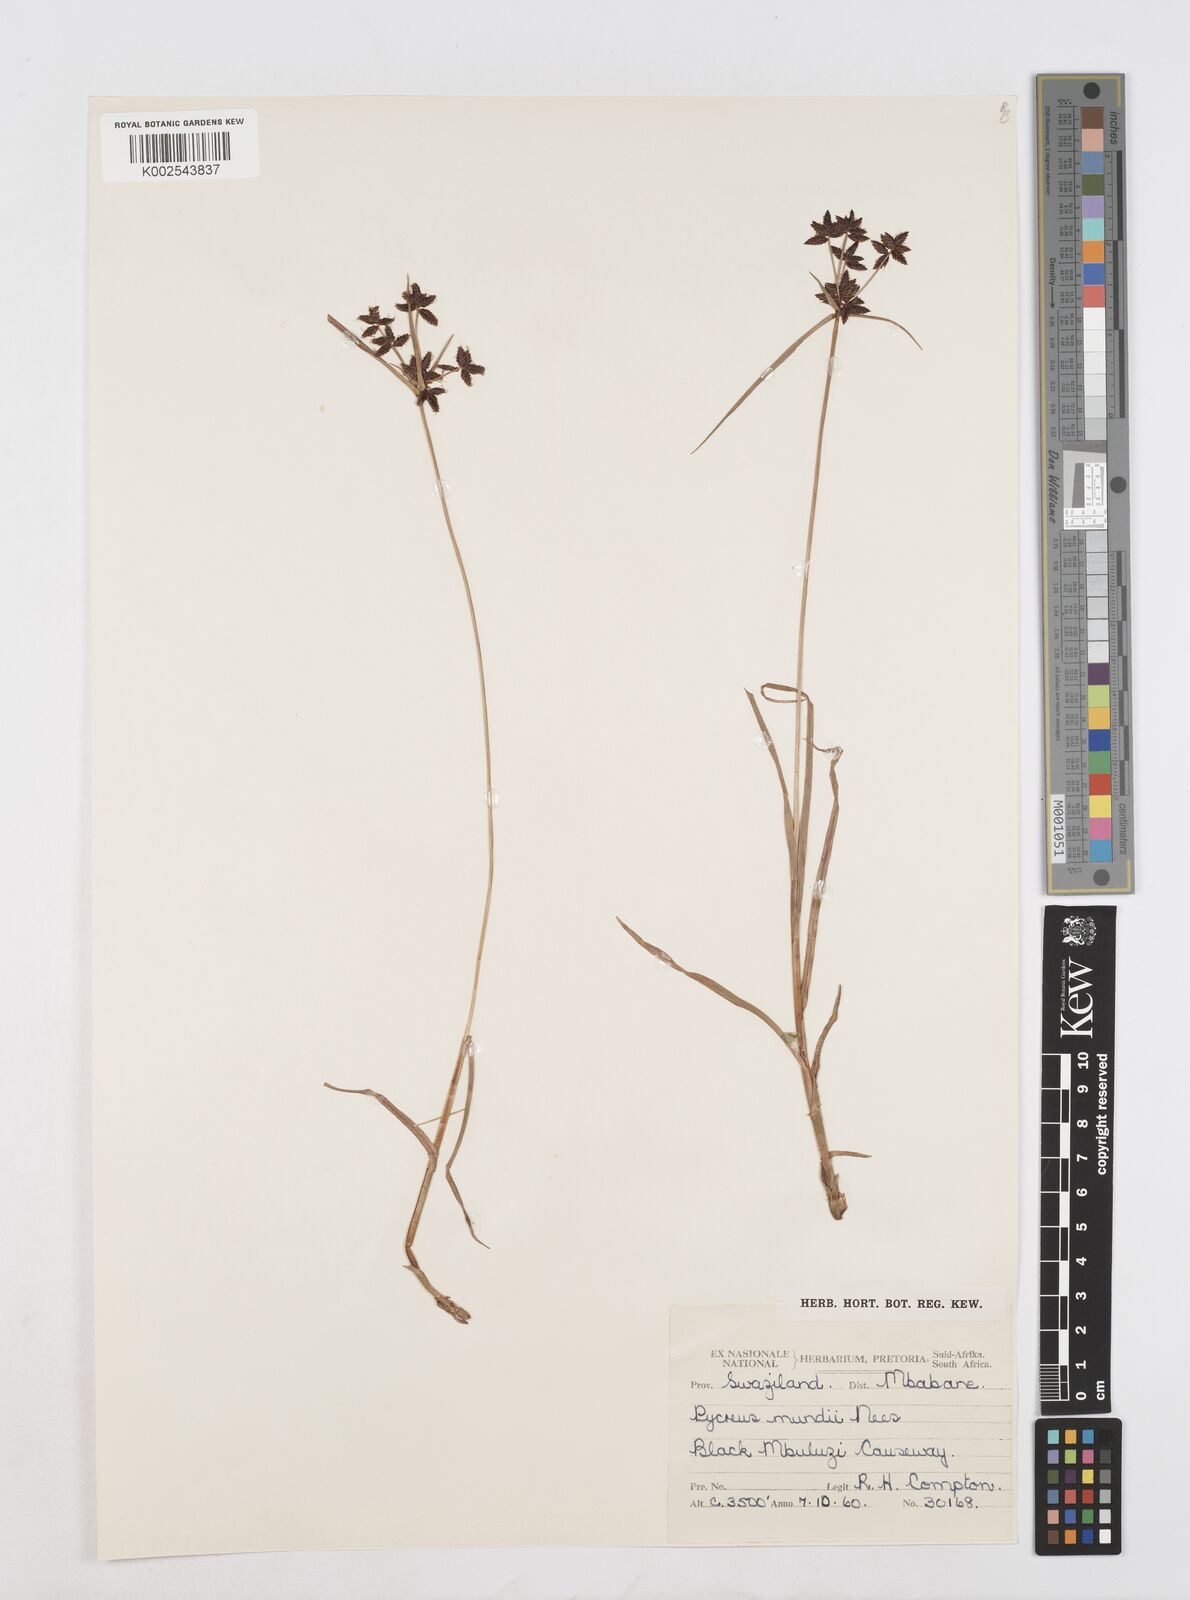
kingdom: Plantae
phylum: Tracheophyta
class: Liliopsida
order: Poales
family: Cyperaceae
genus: Cyperus
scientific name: Cyperus mundii
